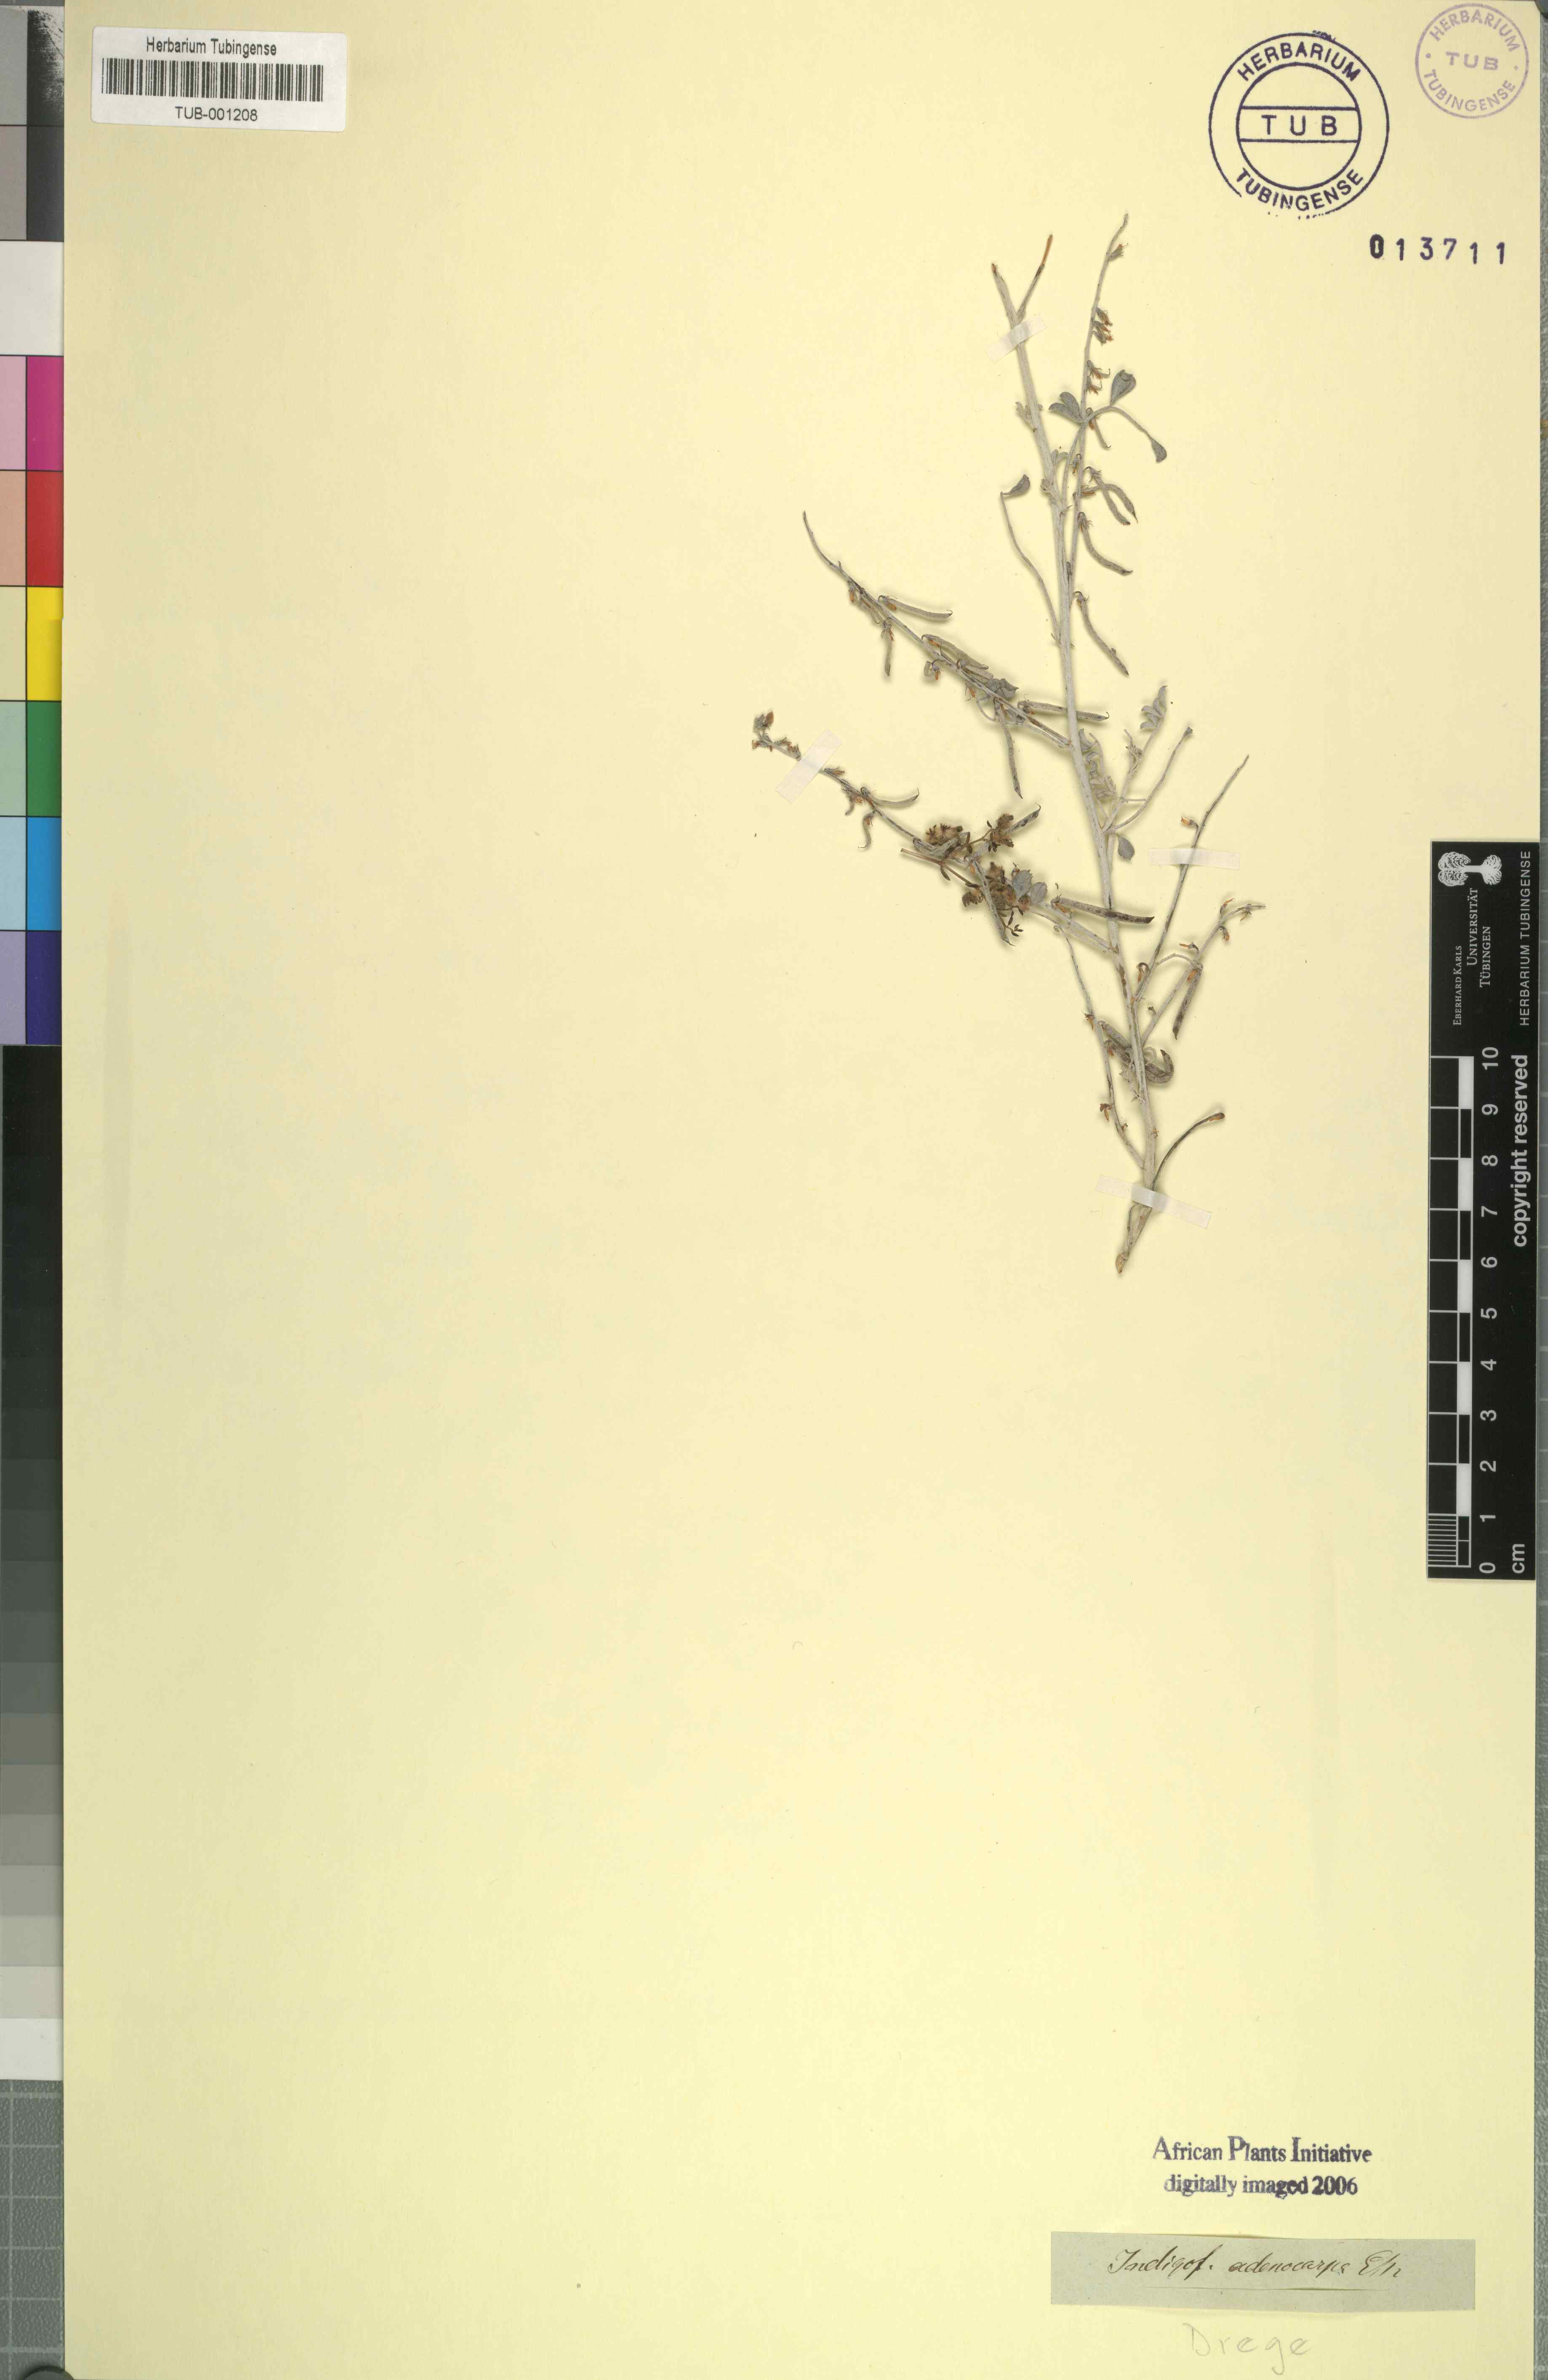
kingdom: Plantae
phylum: Tracheophyta
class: Magnoliopsida
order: Fabales
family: Fabaceae
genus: Indigofera
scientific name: Indigofera adenocarpa
